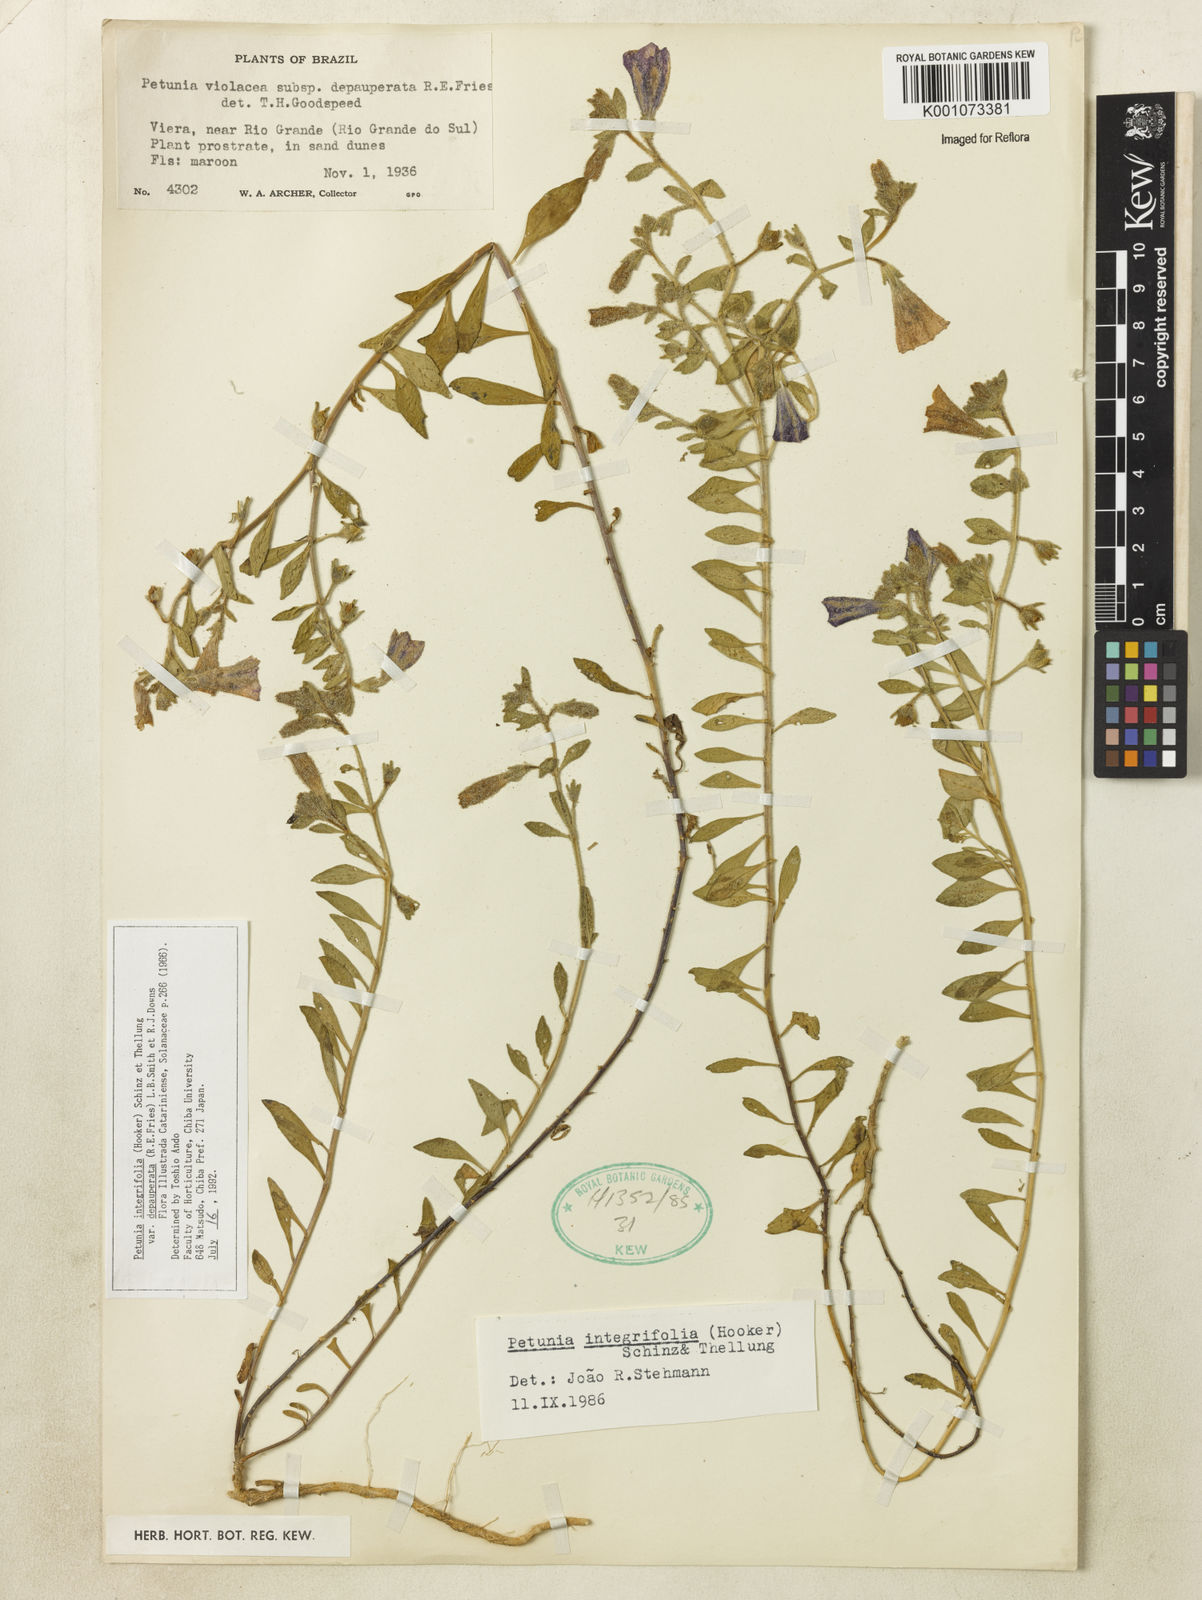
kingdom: Plantae
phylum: Tracheophyta
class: Magnoliopsida
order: Solanales
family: Solanaceae
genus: Petunia
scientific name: Petunia integrifolia
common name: Violet-flower petunia
